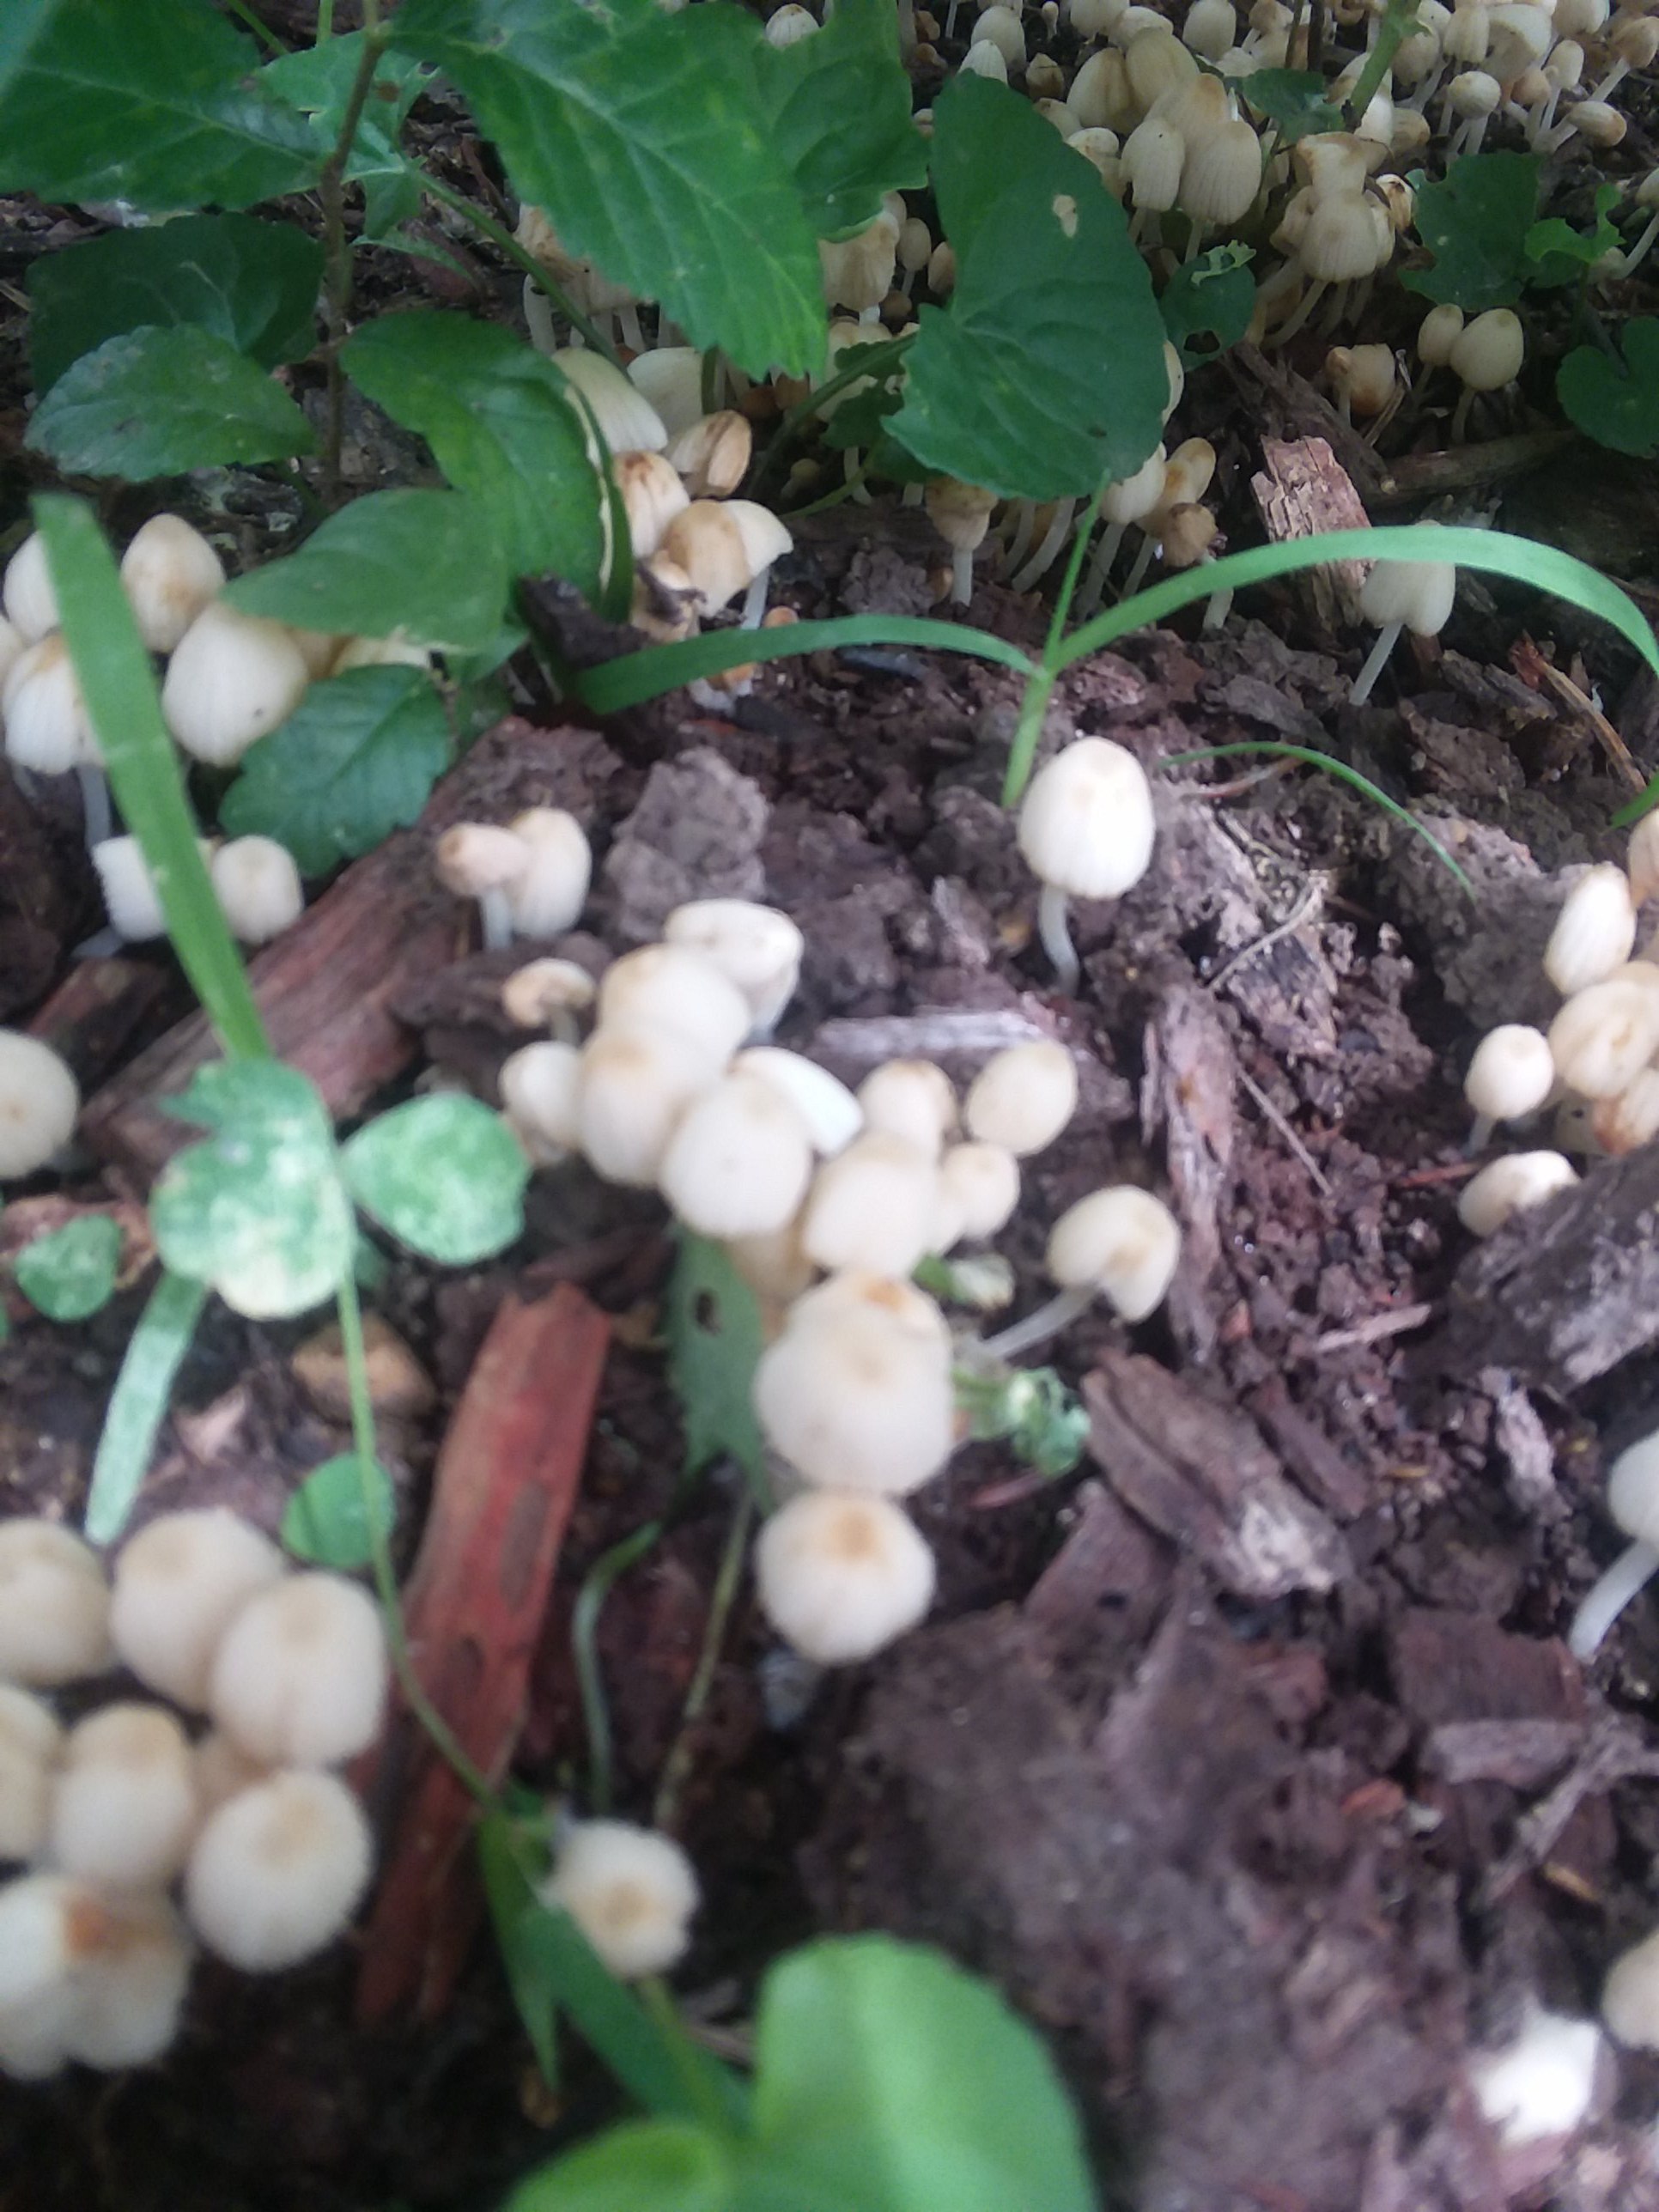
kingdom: Fungi
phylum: Basidiomycota
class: Agaricomycetes
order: Agaricales
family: Psathyrellaceae
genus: Coprinellus
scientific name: Coprinellus disseminatus
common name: bredsået blækhat
